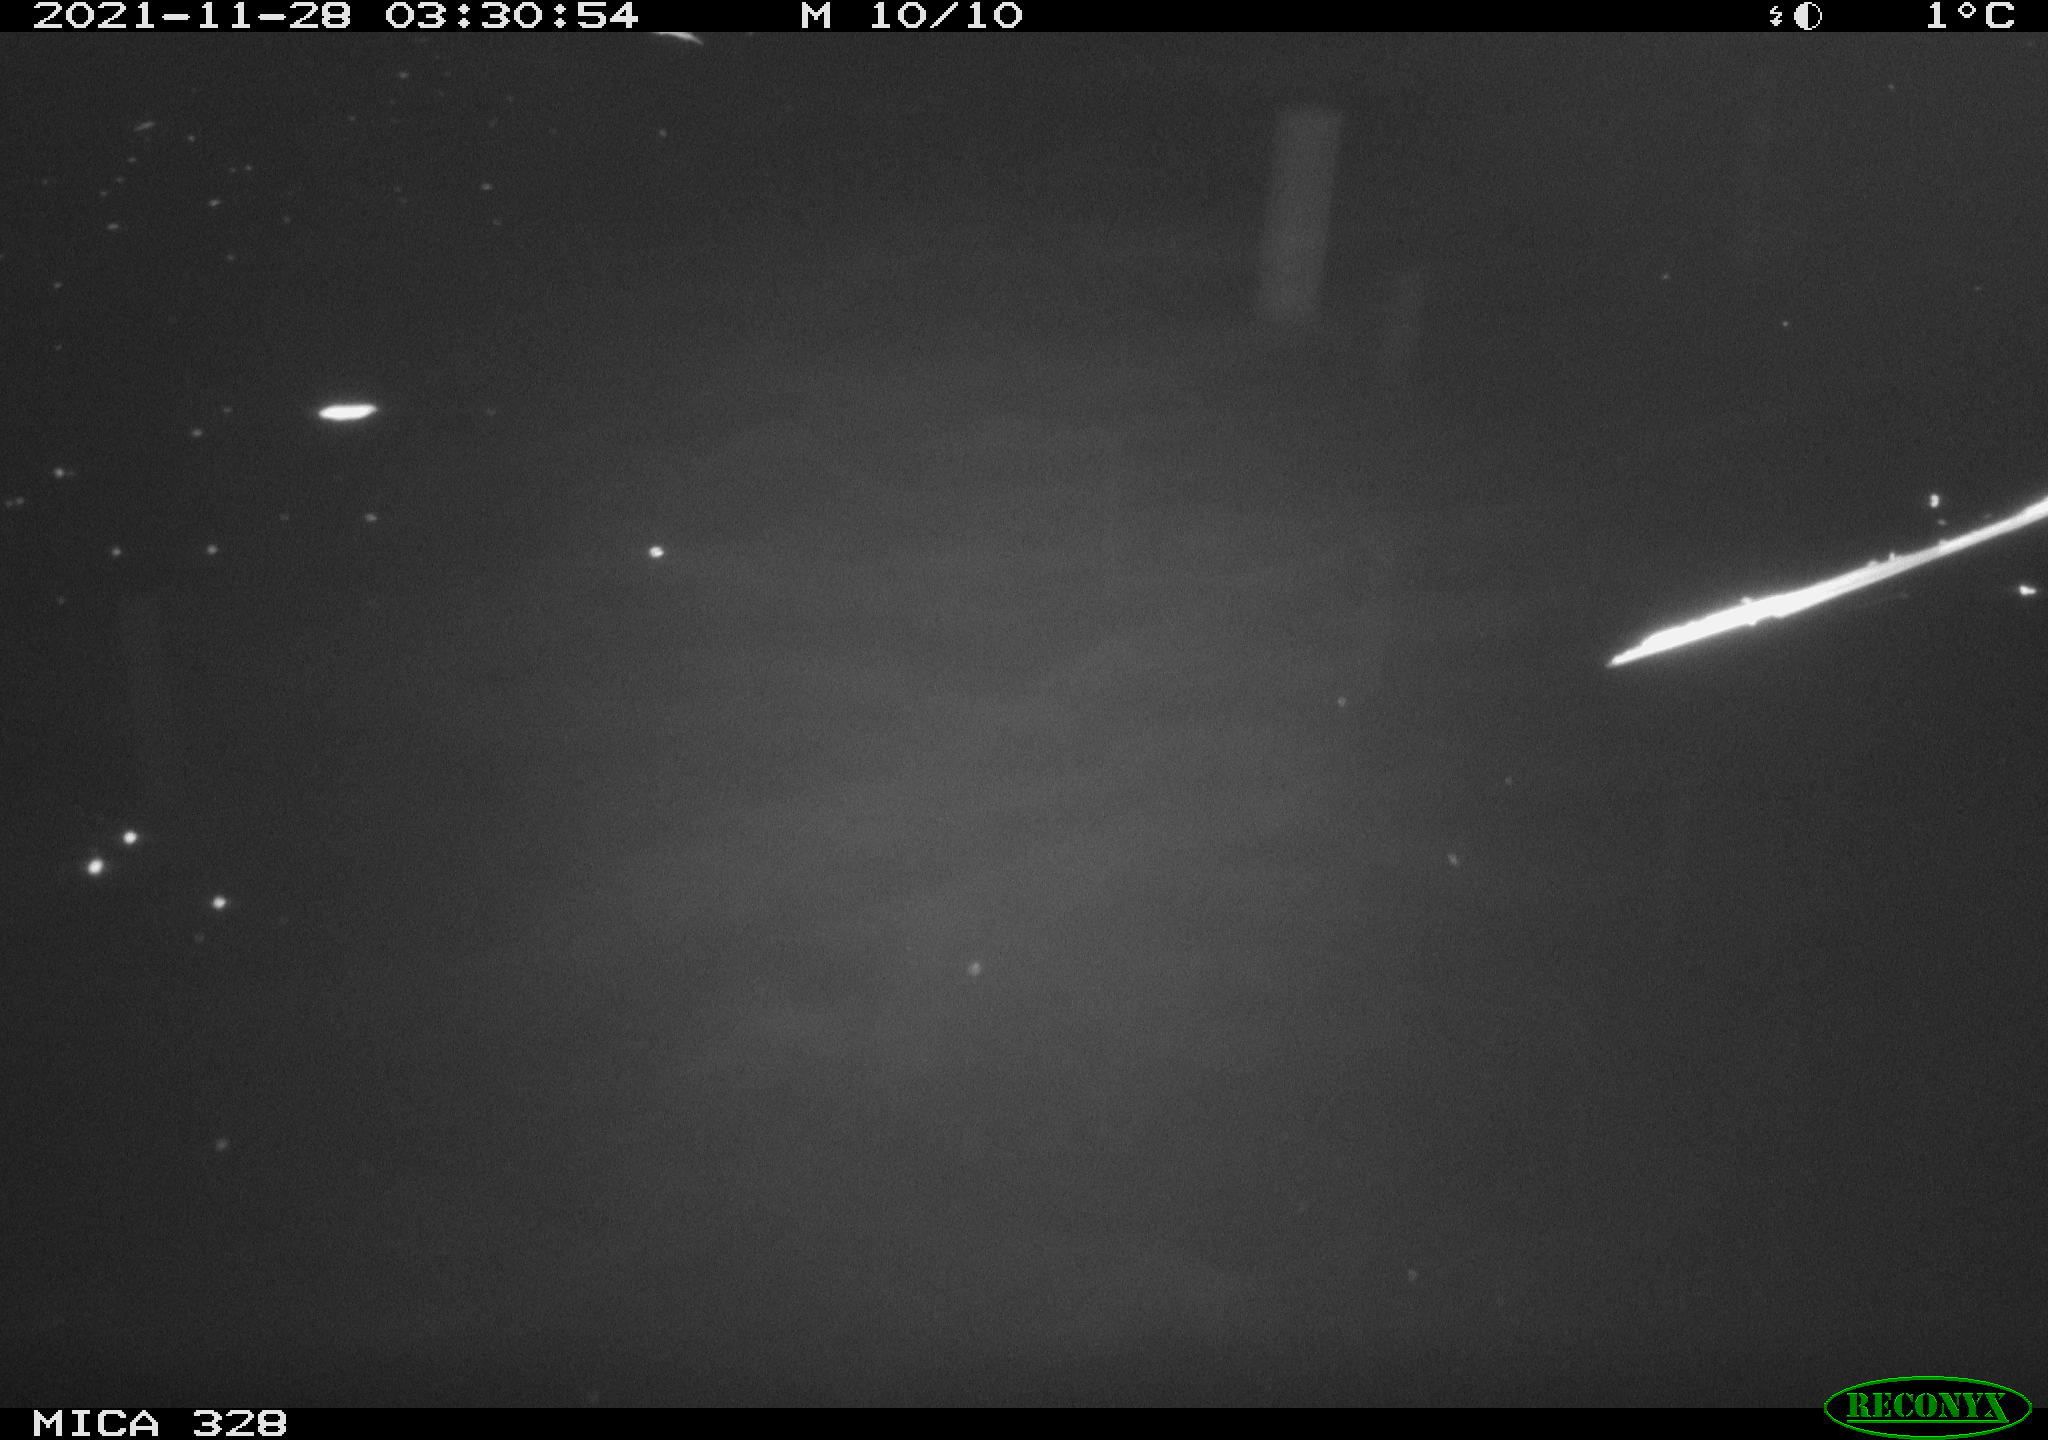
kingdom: Animalia
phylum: Chordata
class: Mammalia
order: Rodentia
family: Cricetidae
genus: Ondatra
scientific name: Ondatra zibethicus
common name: Muskrat
